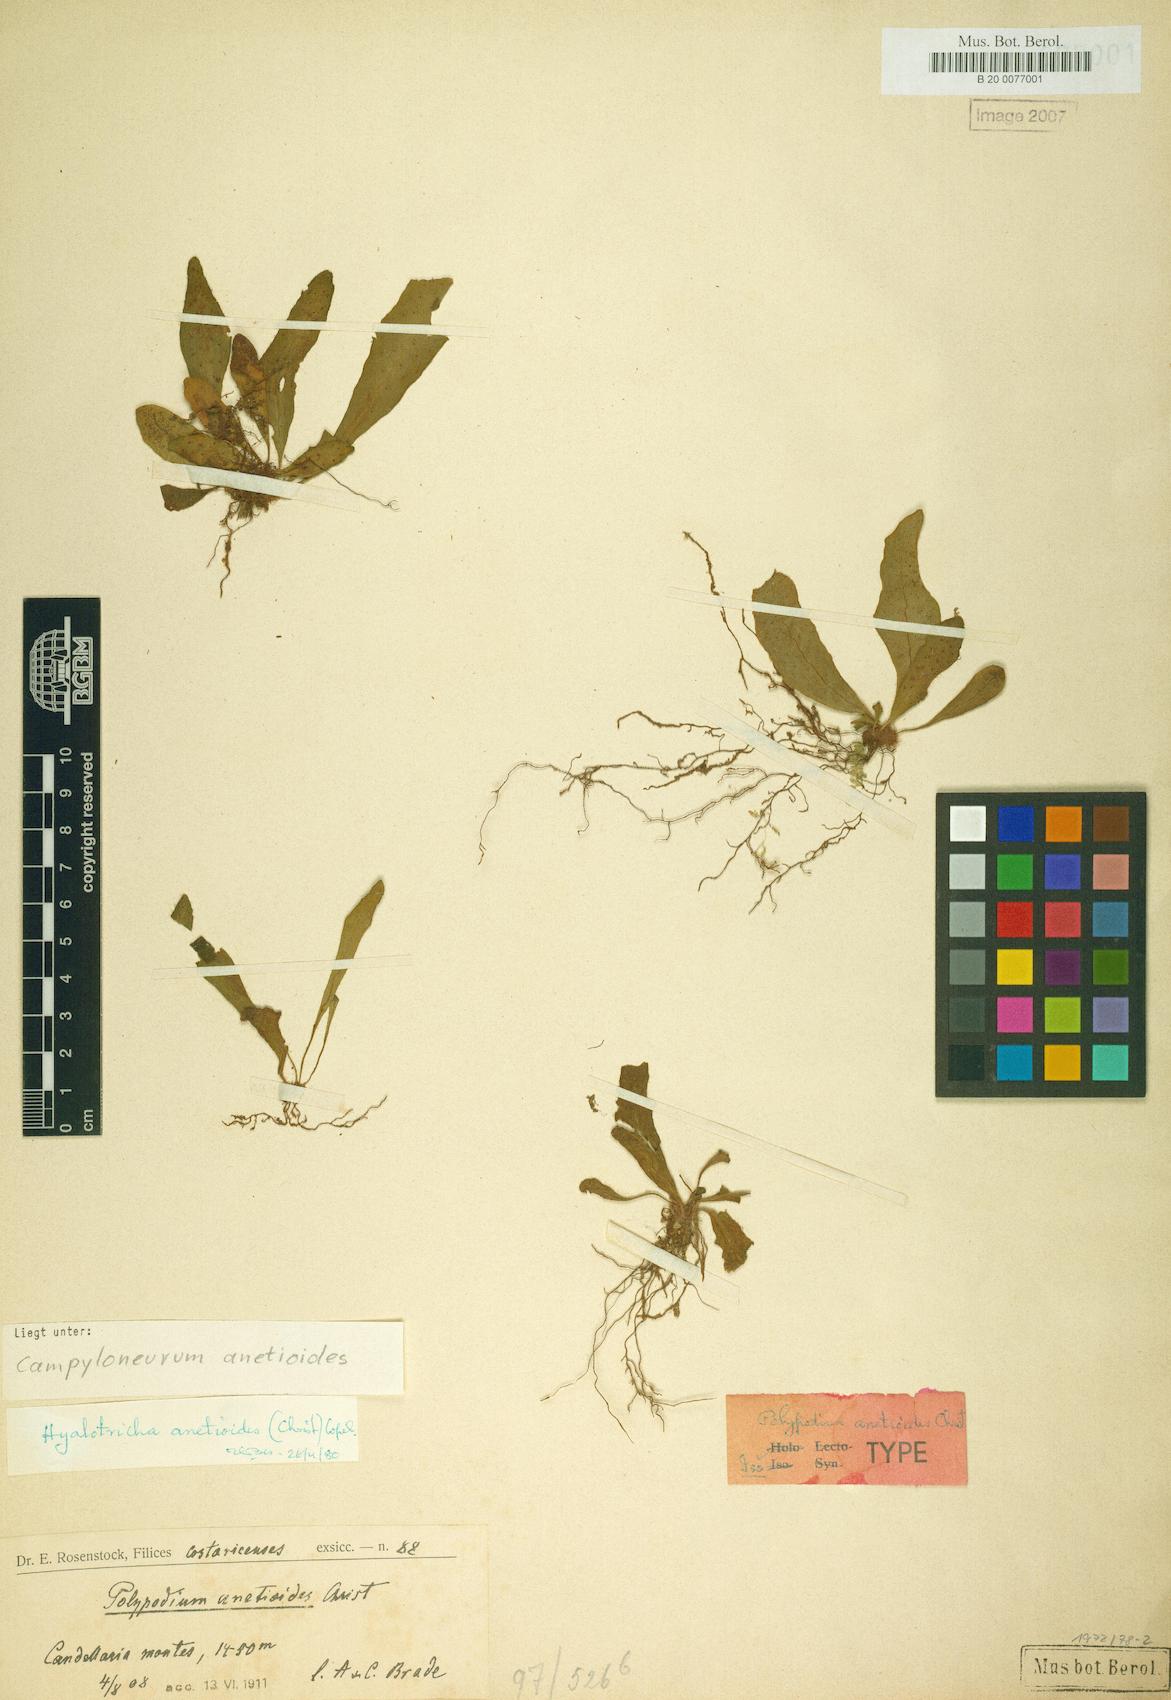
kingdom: Plantae
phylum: Tracheophyta
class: Polypodiopsida
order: Polypodiales
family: Polypodiaceae
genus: Campyloneurum
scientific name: Campyloneurum anetioides
